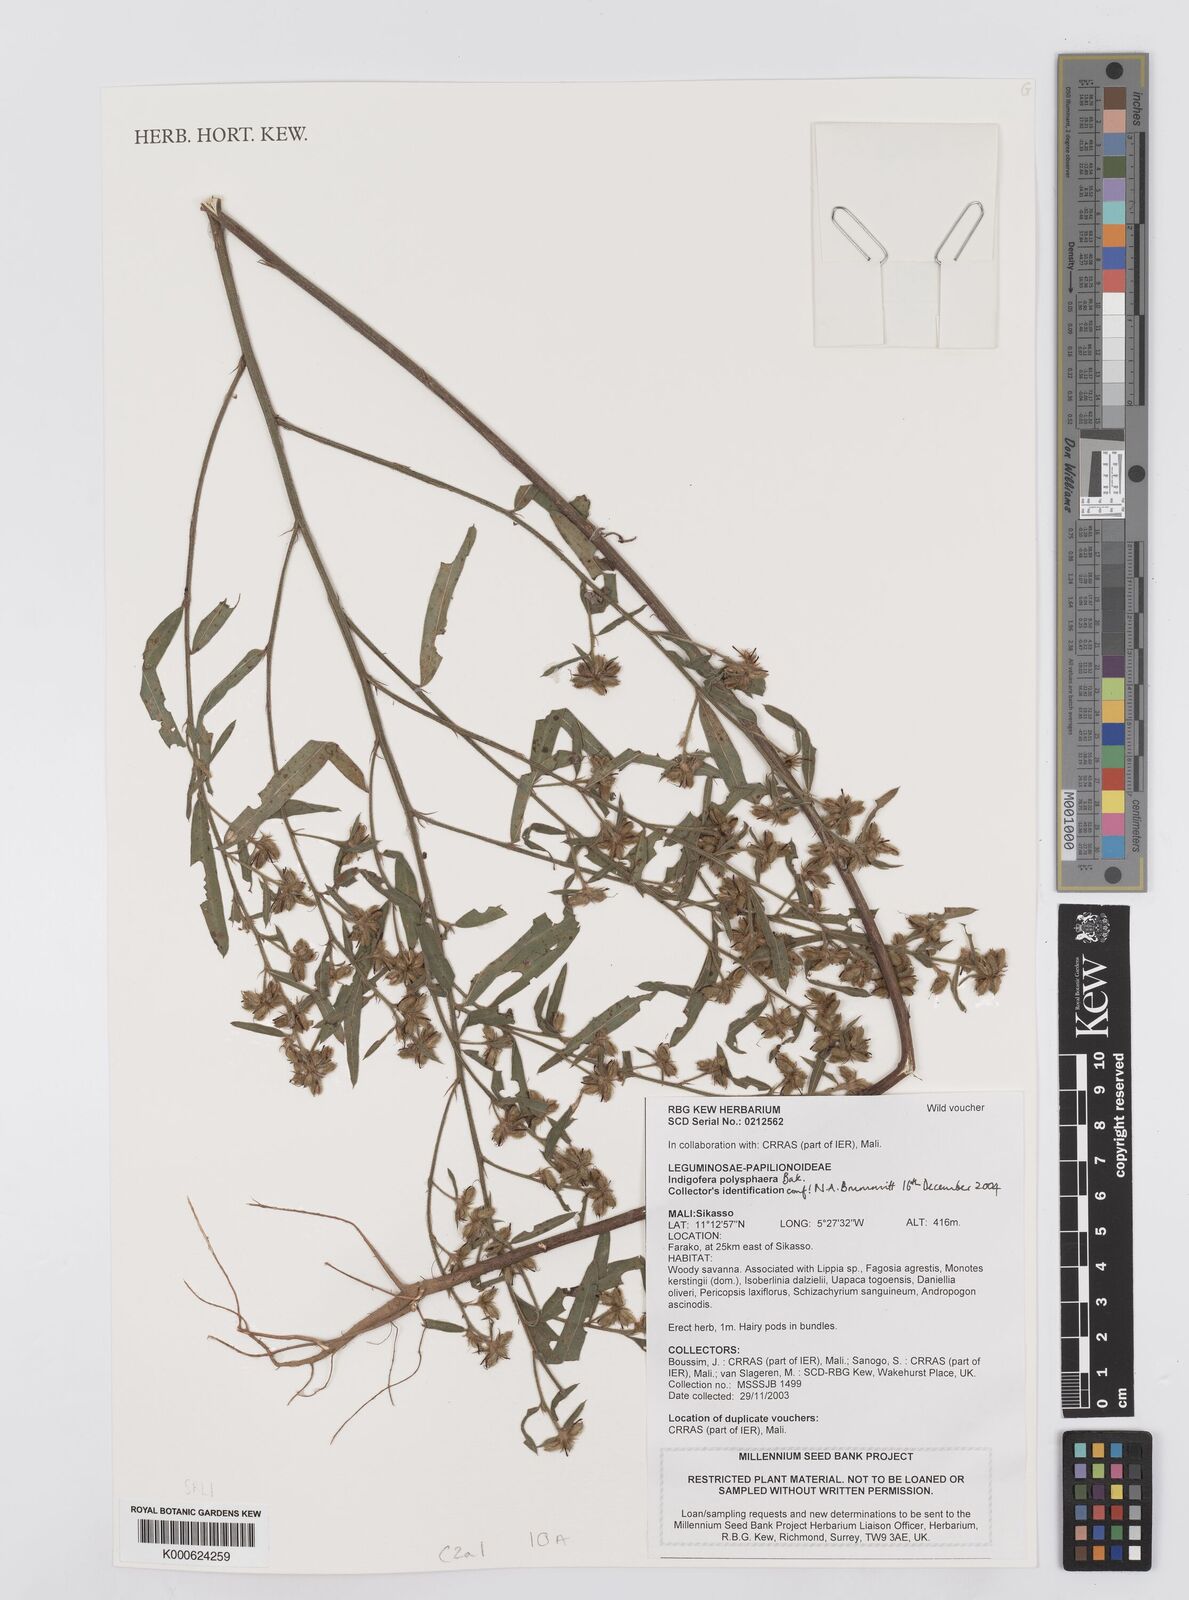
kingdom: Plantae
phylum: Tracheophyta
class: Magnoliopsida
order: Fabales
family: Fabaceae
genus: Indigofera
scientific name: Indigofera polysphaera
